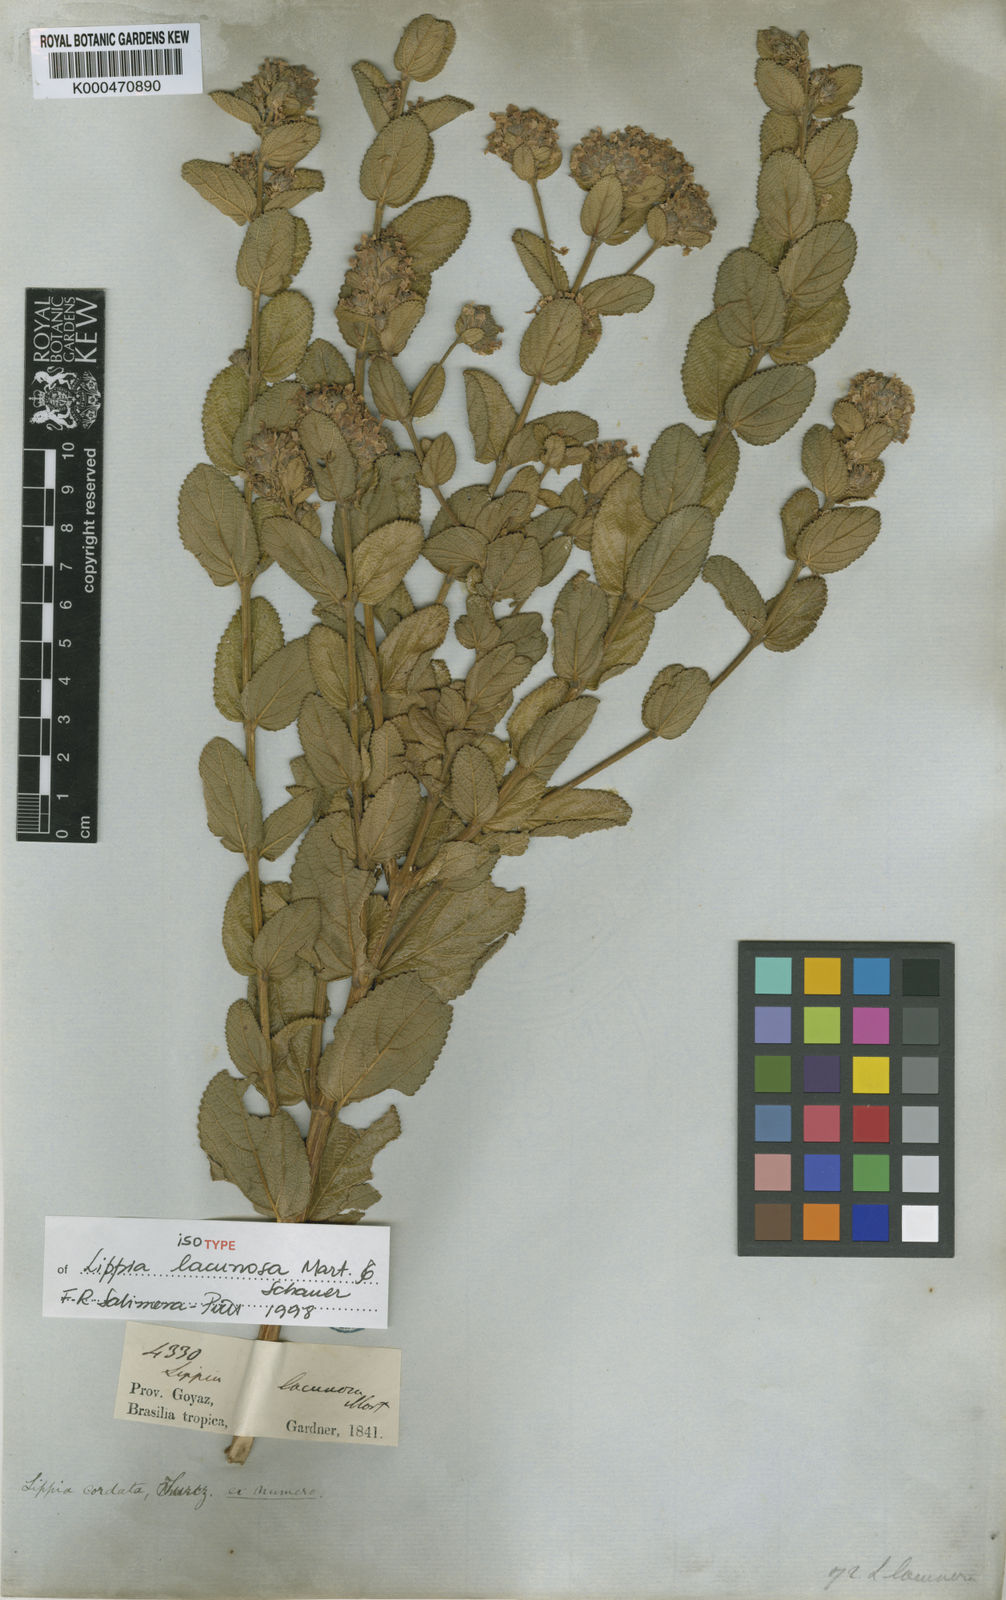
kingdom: Plantae
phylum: Tracheophyta
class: Magnoliopsida
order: Lamiales
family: Verbenaceae
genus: Lippia
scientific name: Lippia lacunosa
